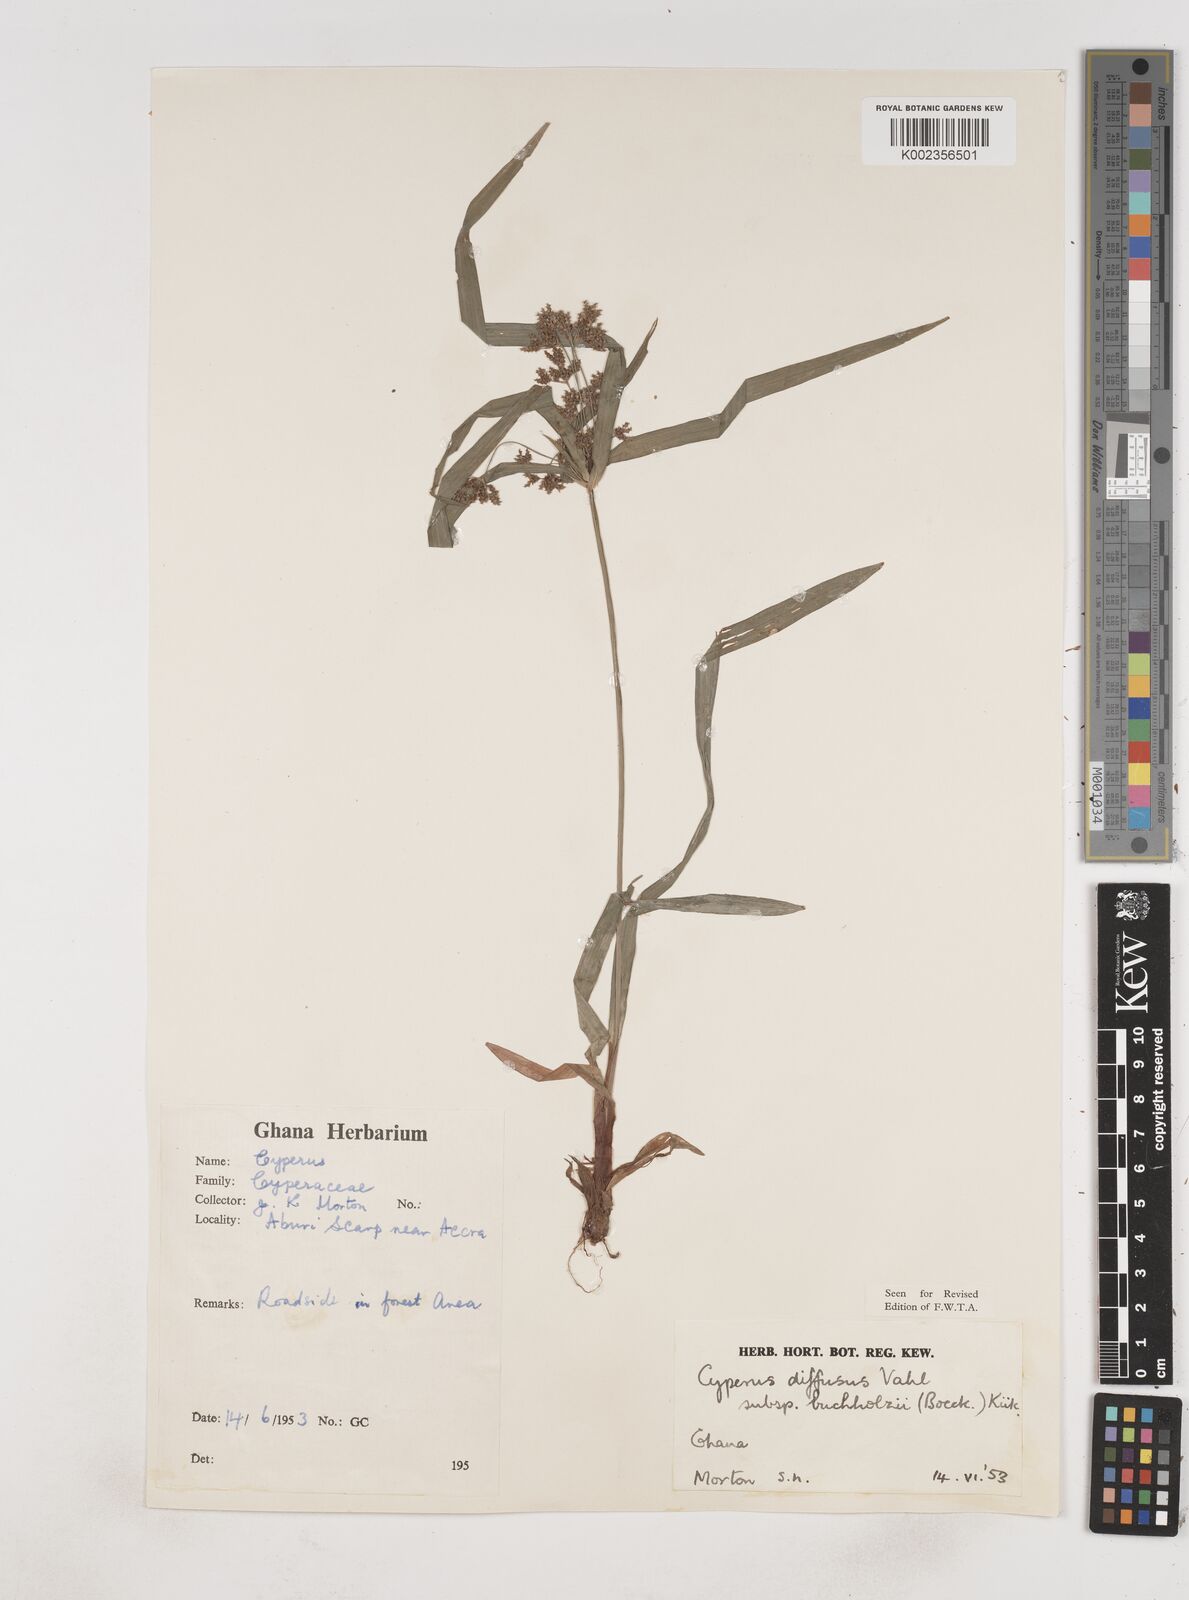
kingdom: Plantae
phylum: Tracheophyta
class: Liliopsida
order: Poales
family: Cyperaceae
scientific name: Cyperaceae
